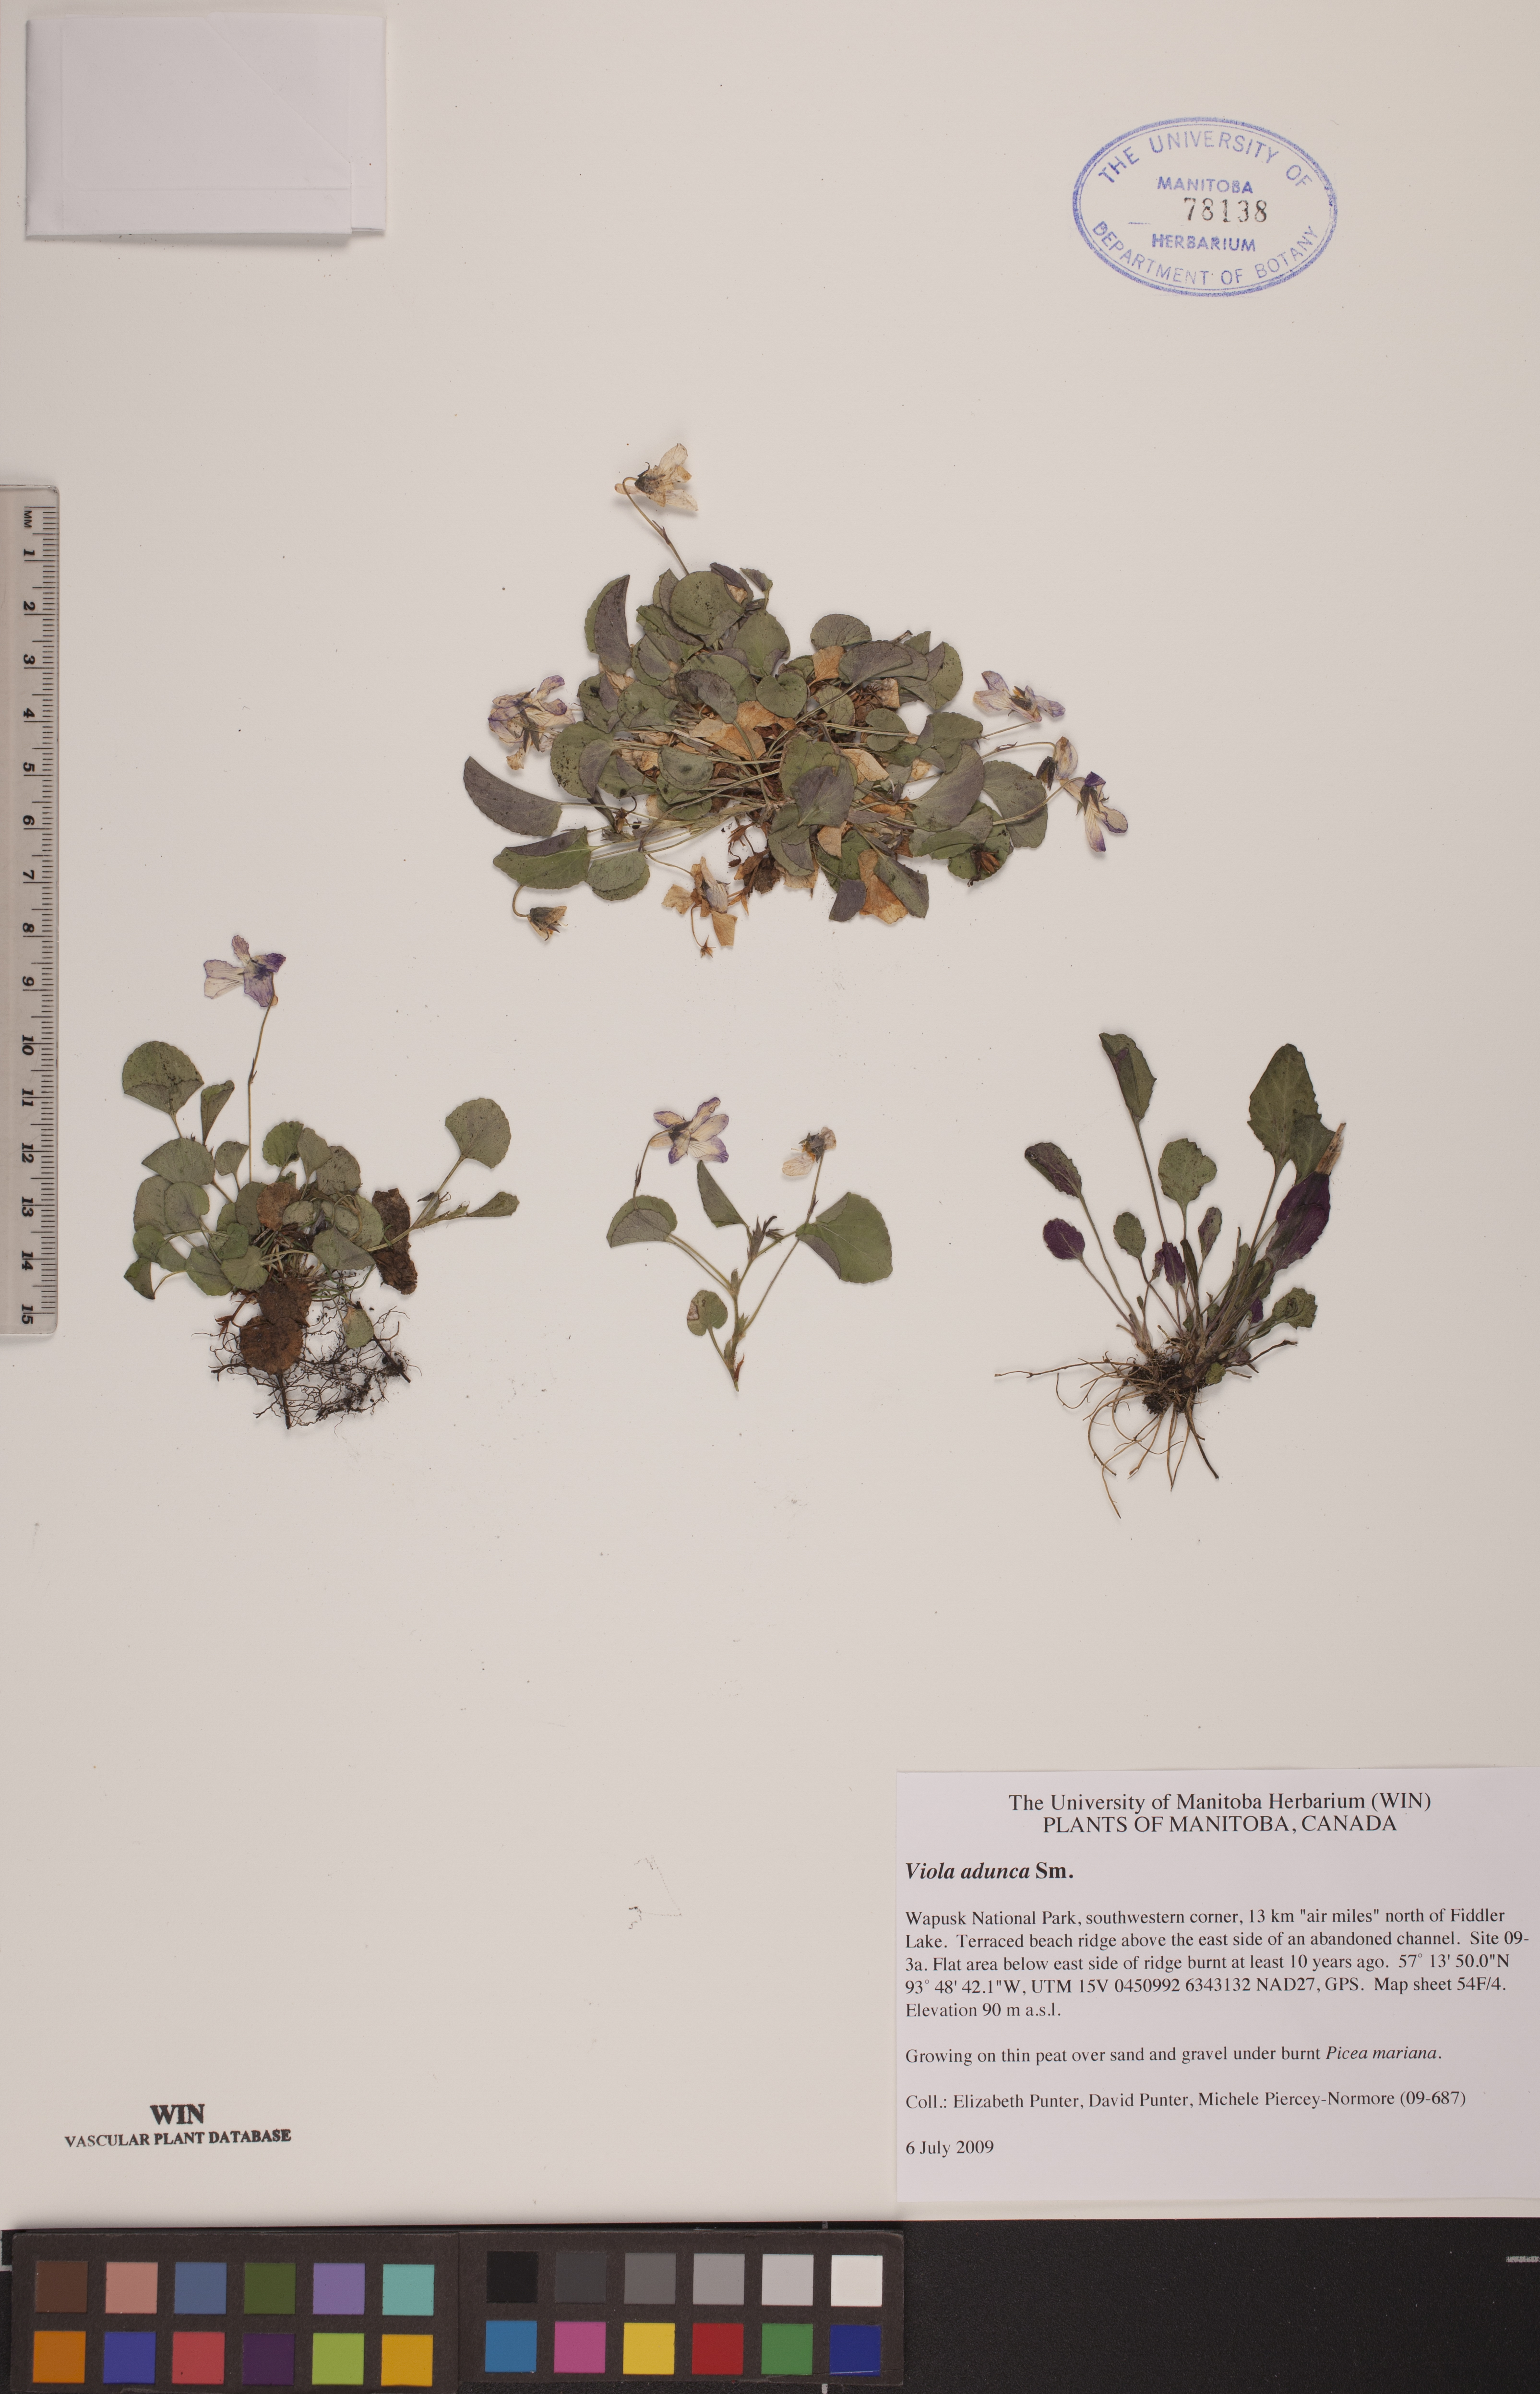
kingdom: Plantae
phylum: Tracheophyta
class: Magnoliopsida
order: Malpighiales
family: Violaceae
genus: Viola
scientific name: Viola adunca
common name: Sand violet
